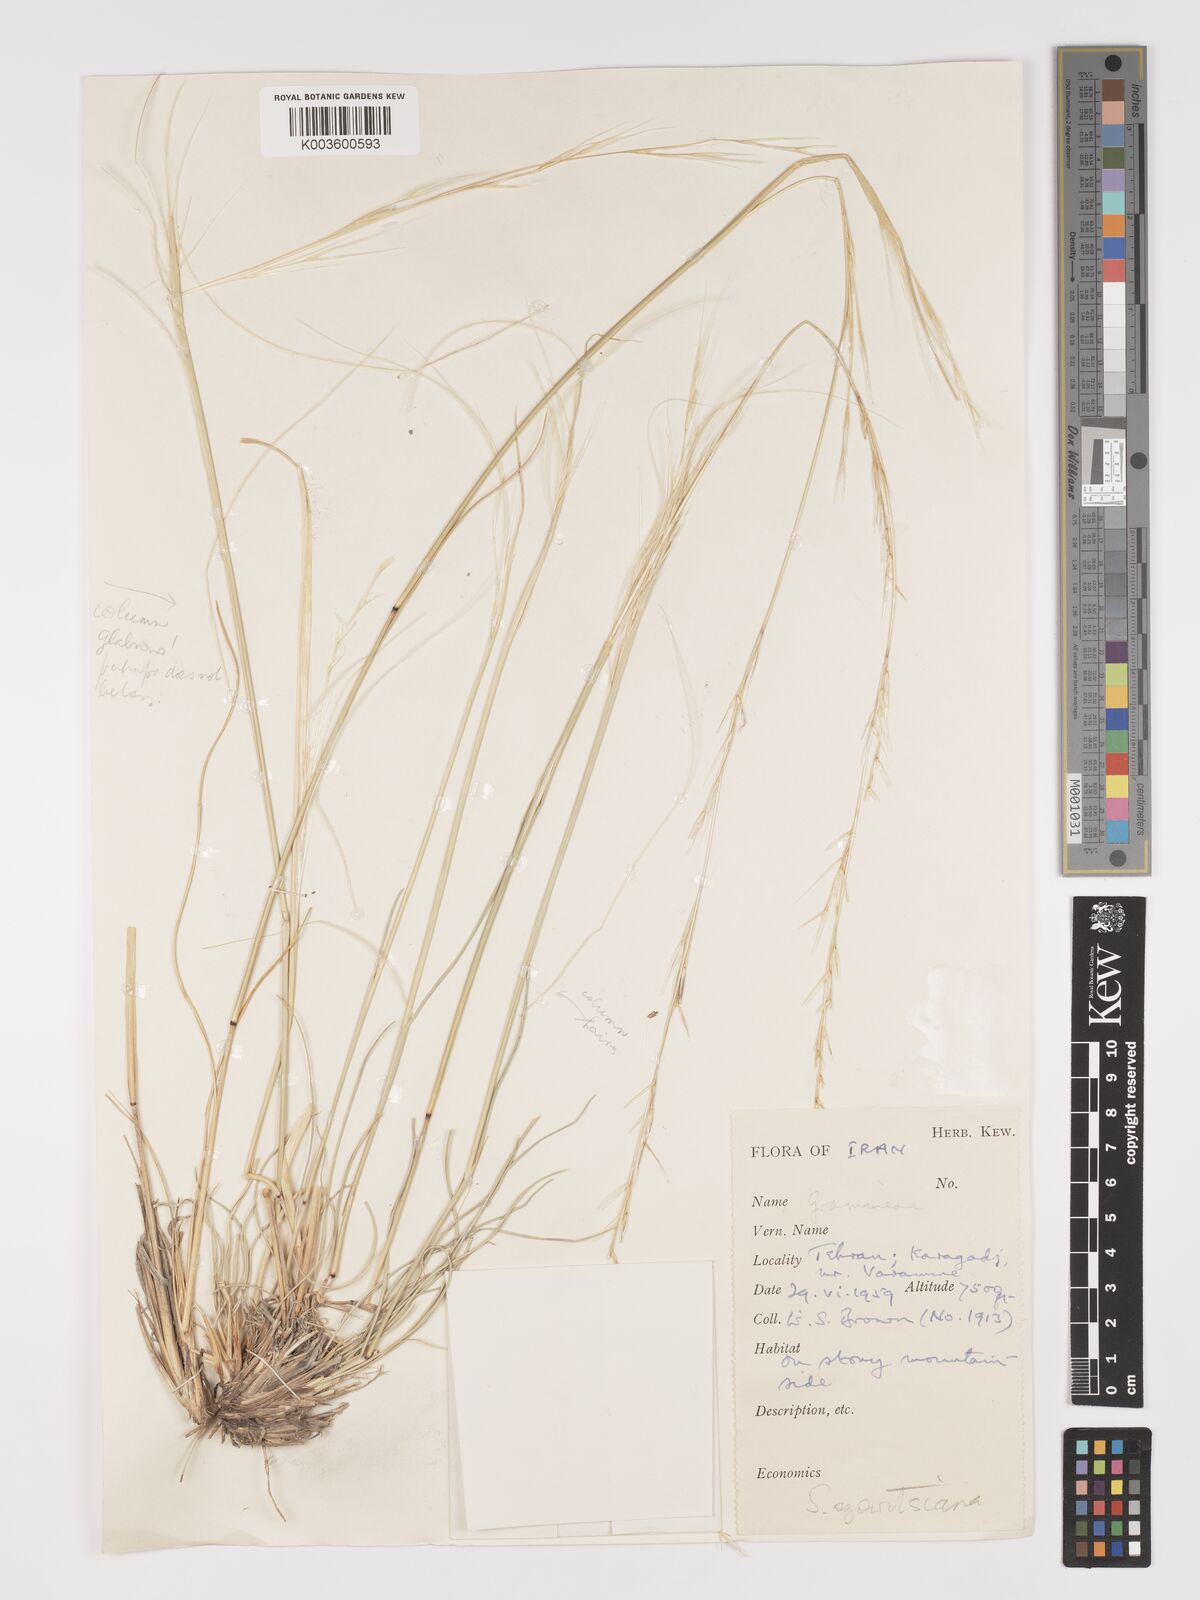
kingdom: Plantae
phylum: Tracheophyta
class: Liliopsida
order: Poales
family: Poaceae
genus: Stipa
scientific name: Stipa barbata
